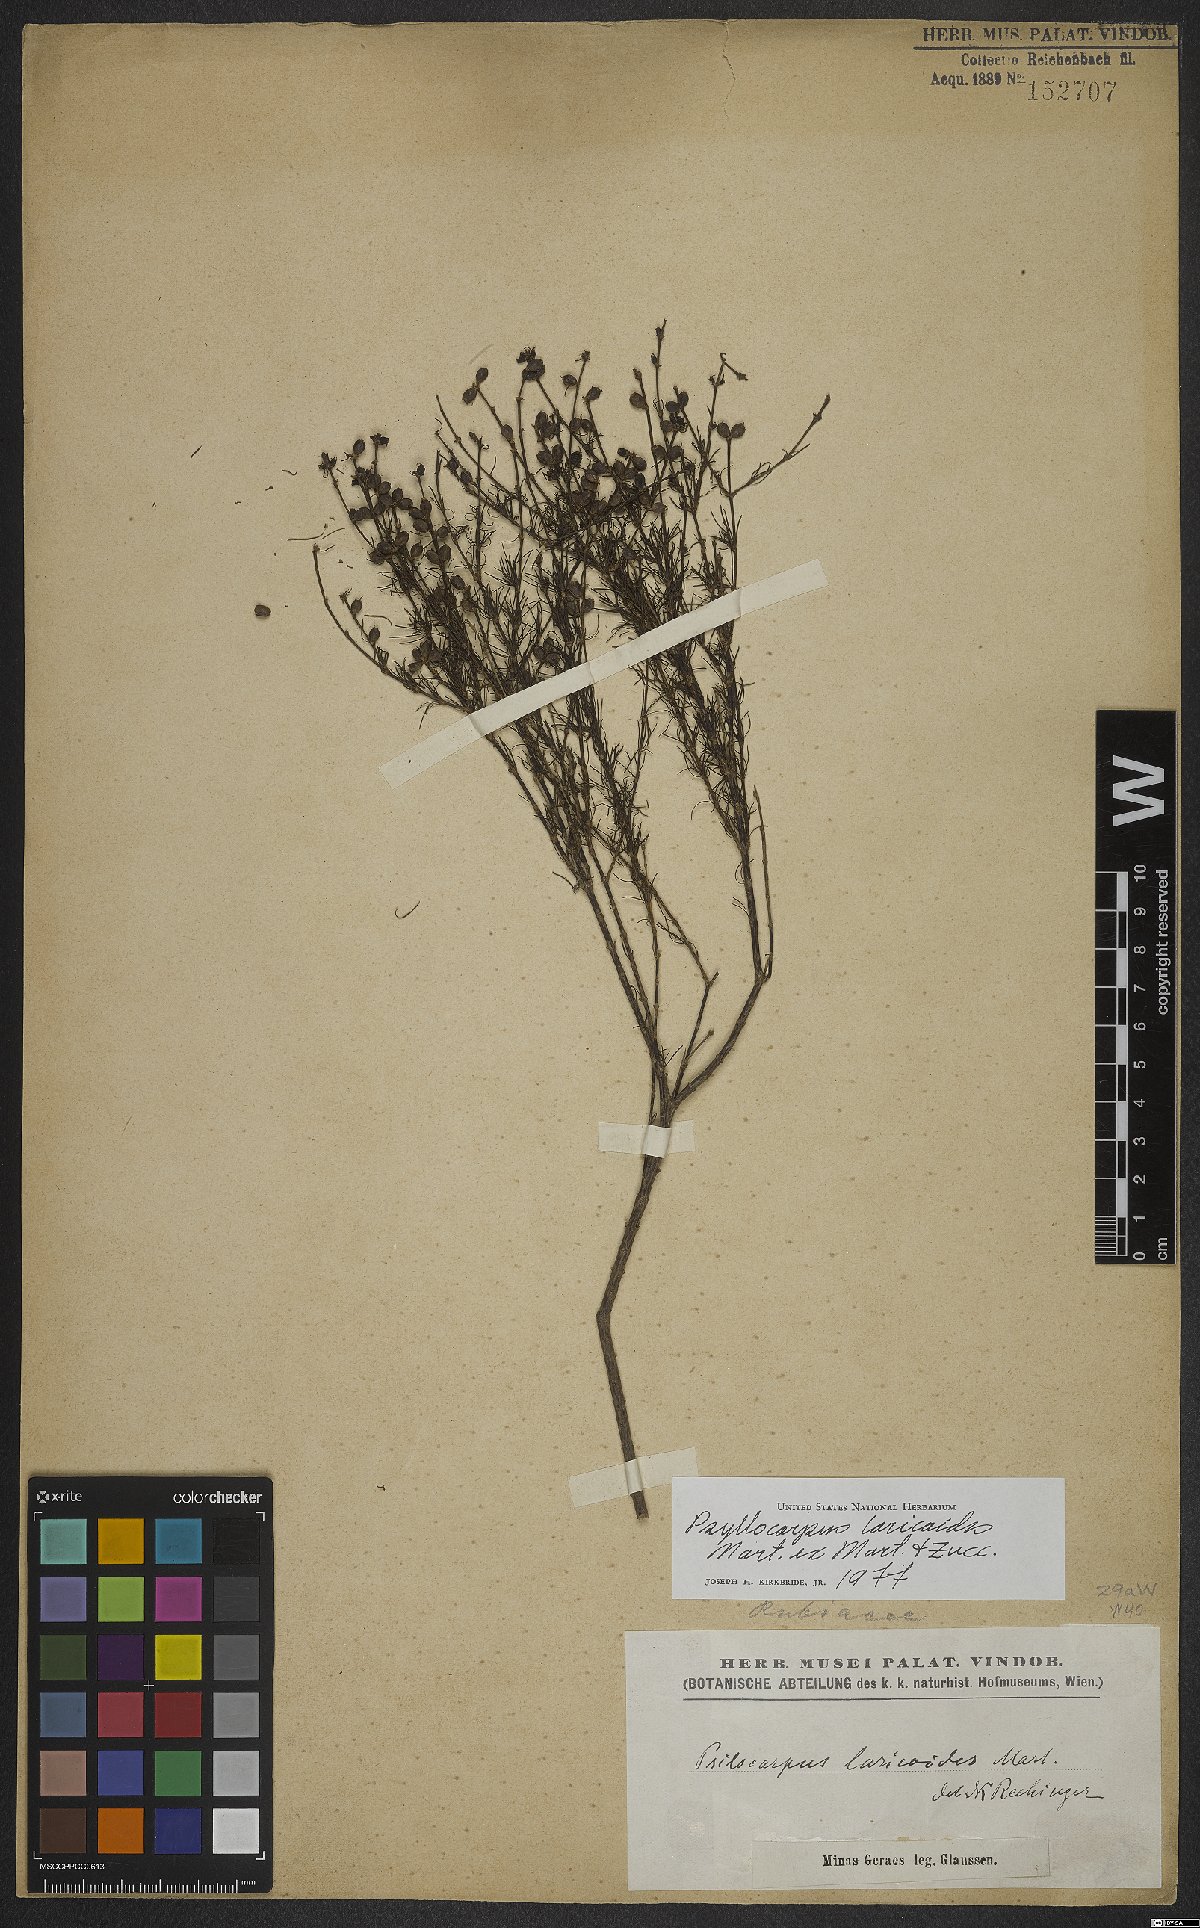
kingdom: Plantae
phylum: Tracheophyta
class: Magnoliopsida
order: Gentianales
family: Rubiaceae
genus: Psyllocarpus
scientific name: Psyllocarpus laricoides
